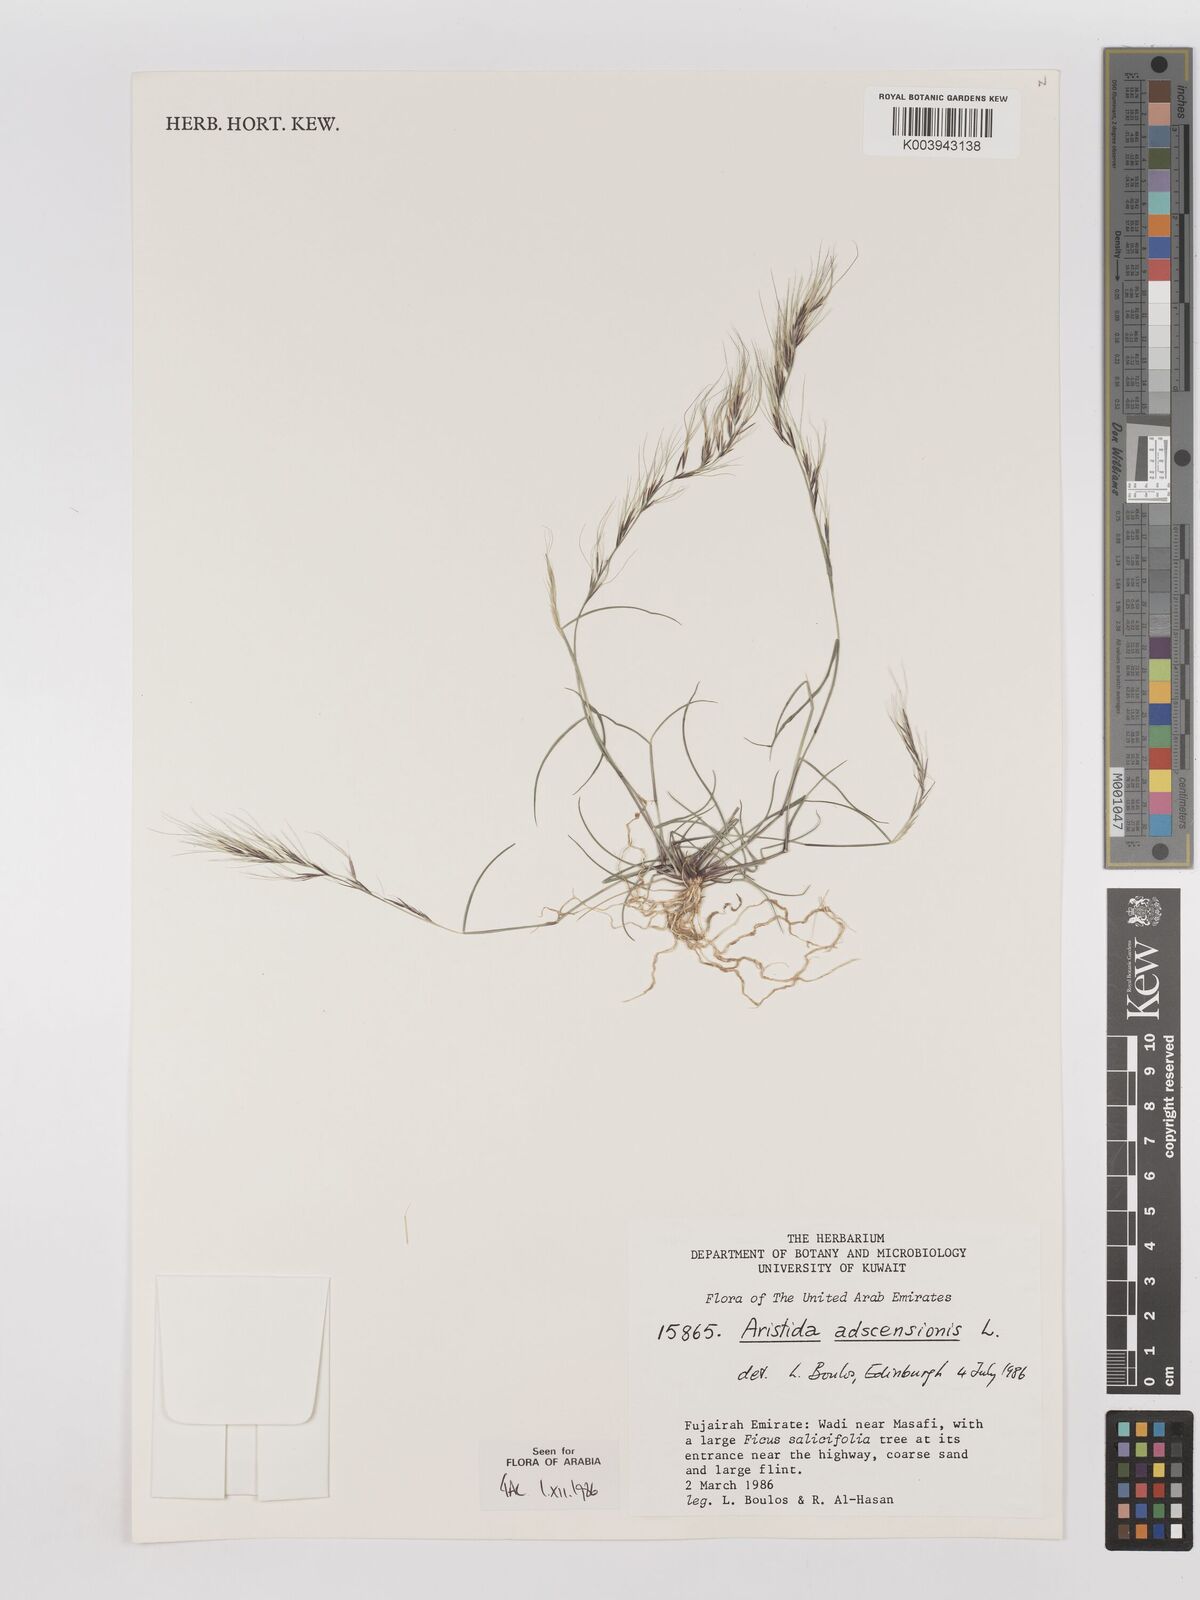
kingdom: Plantae
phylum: Tracheophyta
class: Liliopsida
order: Poales
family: Poaceae
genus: Aristida
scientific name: Aristida adscensionis
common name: Sixweeks threeawn
